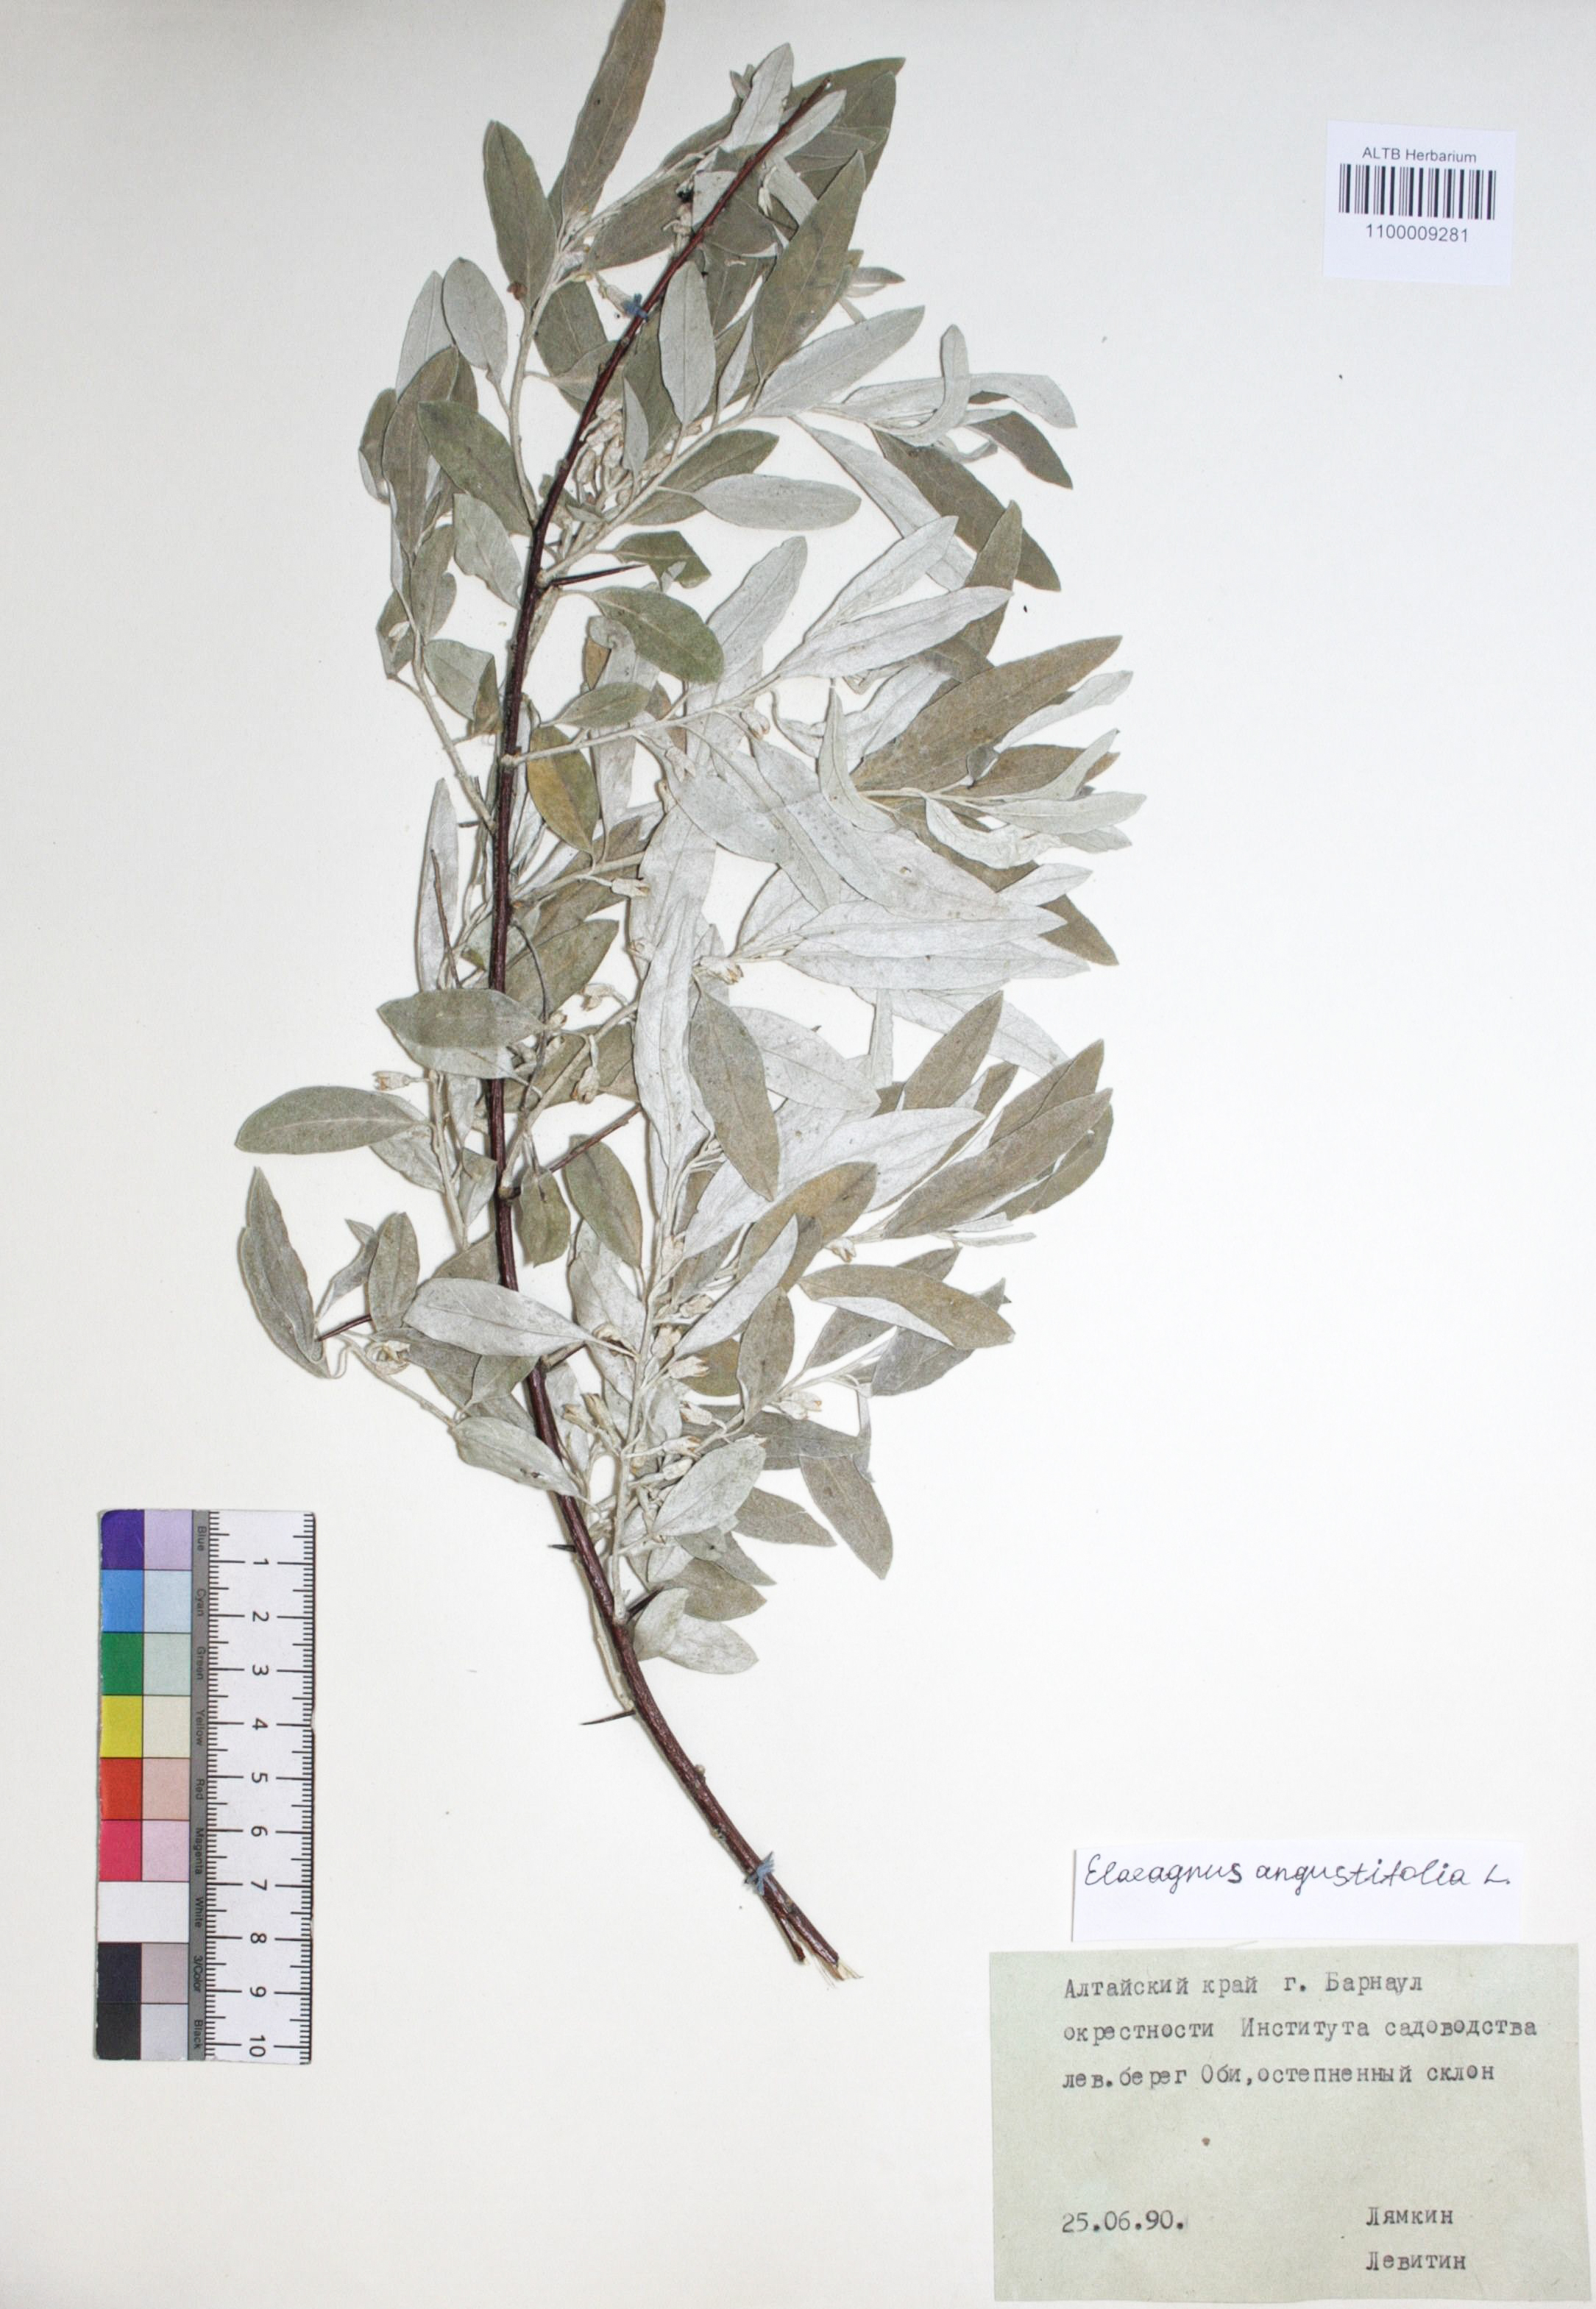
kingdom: Plantae
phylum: Tracheophyta
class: Magnoliopsida
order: Rosales
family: Elaeagnaceae
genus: Elaeagnus
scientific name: Elaeagnus angustifolia
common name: Russian olive
